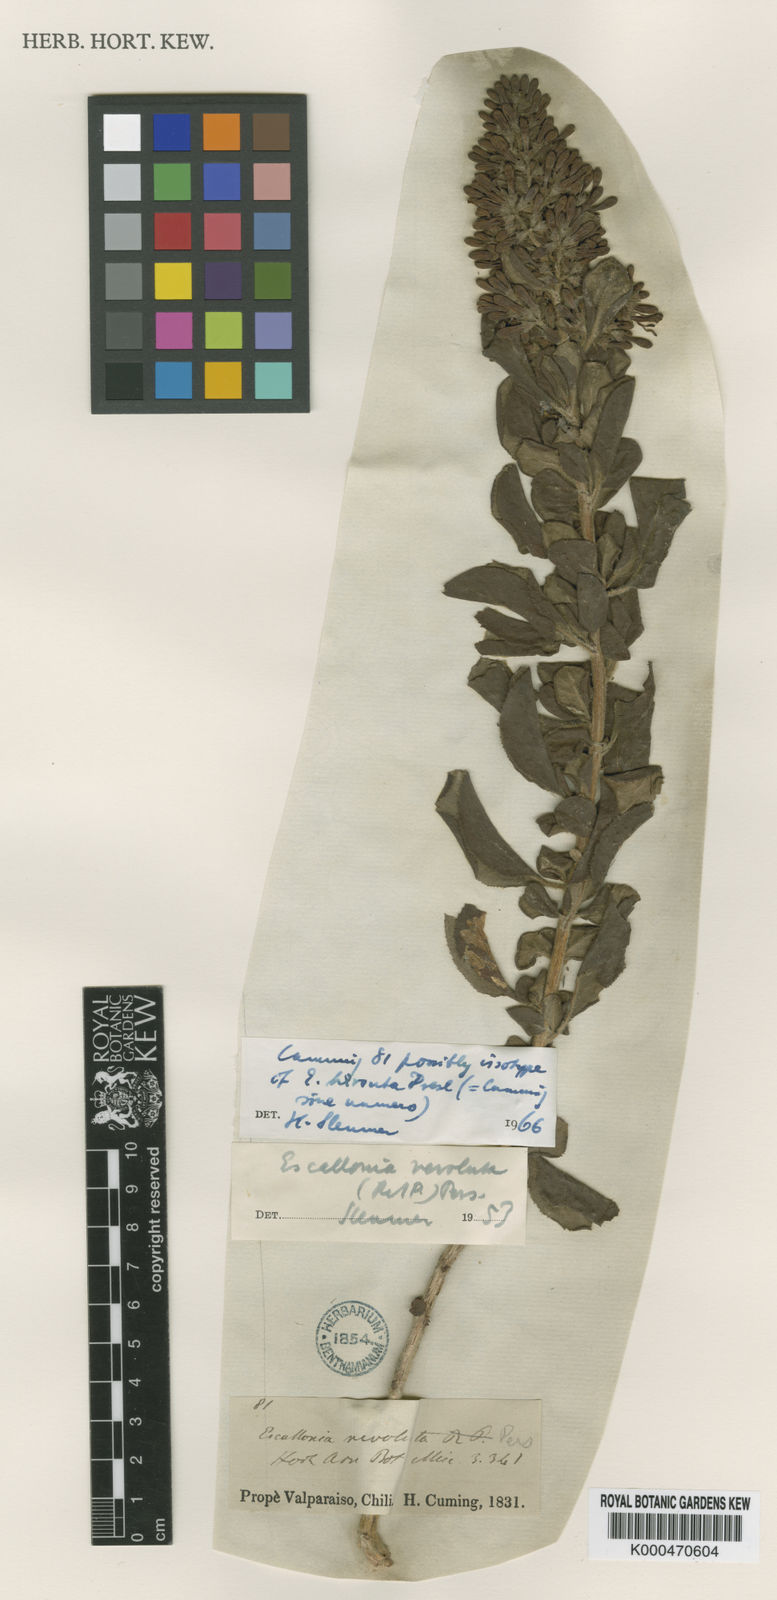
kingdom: Plantae
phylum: Tracheophyta
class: Magnoliopsida
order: Escalloniales
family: Escalloniaceae
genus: Escallonia
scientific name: Escallonia revoluta
